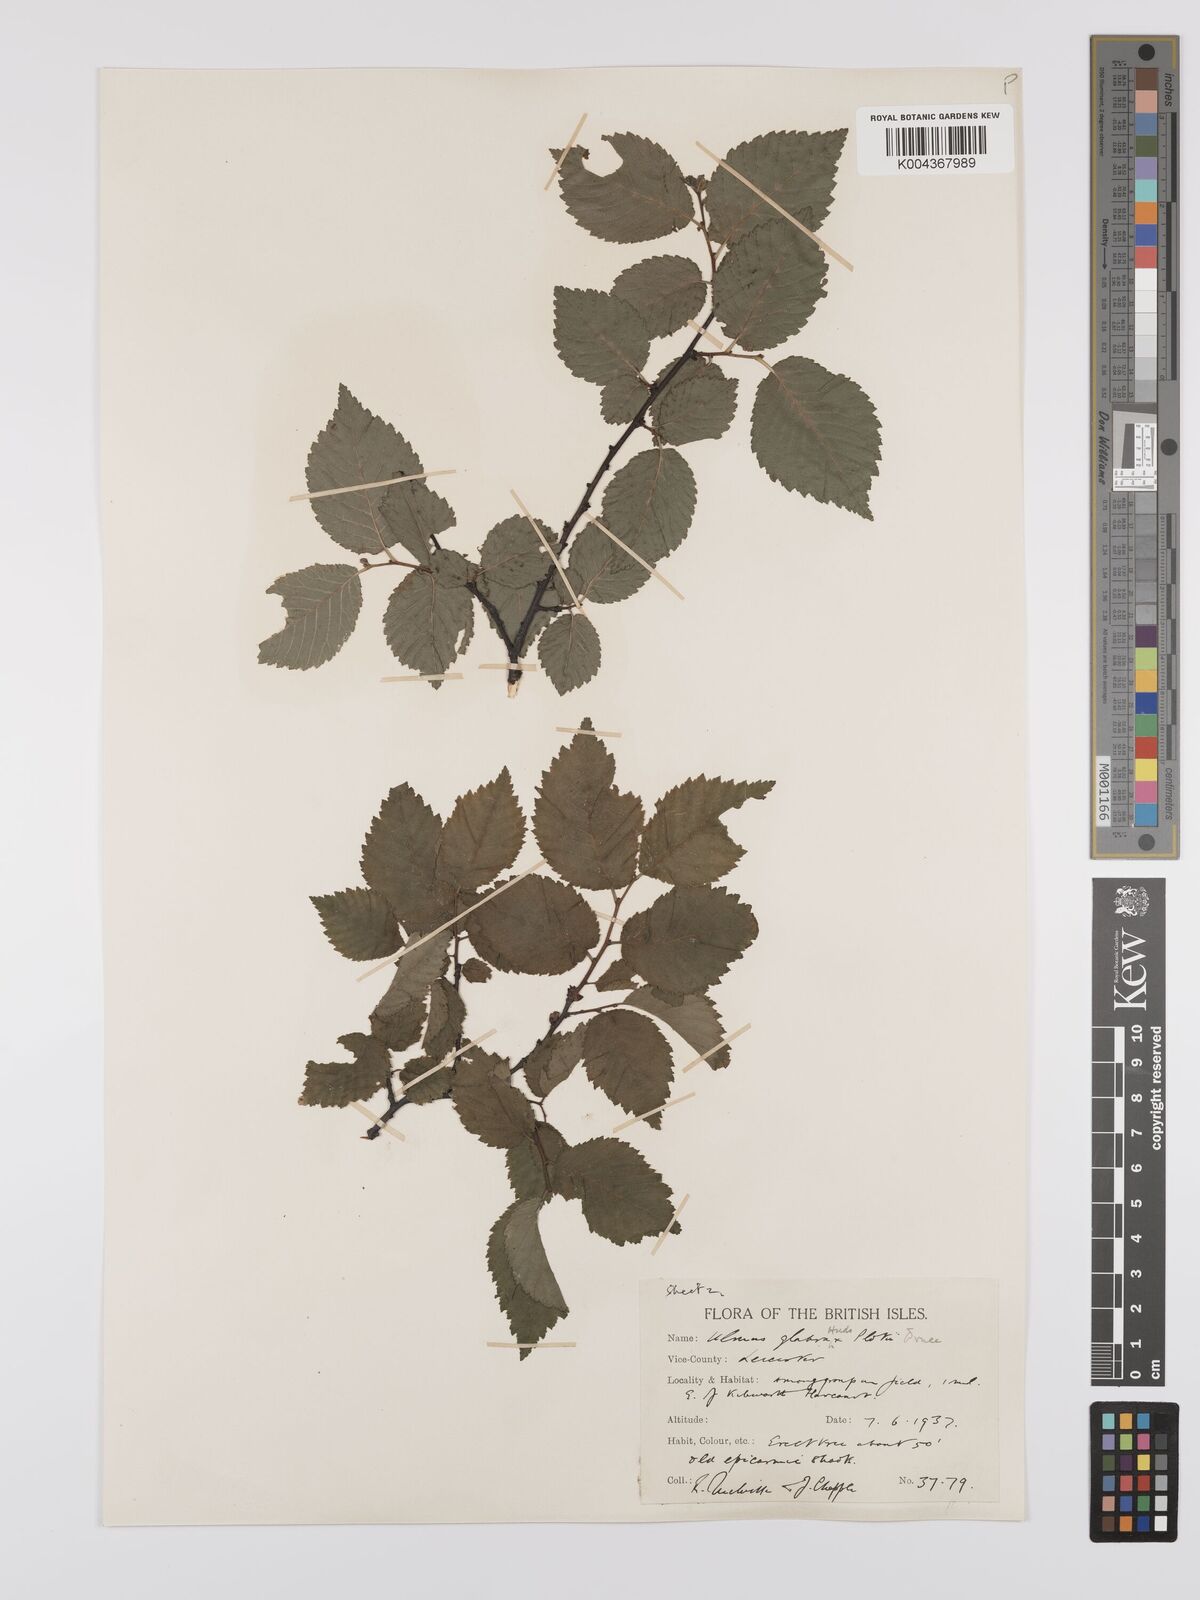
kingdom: Plantae
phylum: Tracheophyta
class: Magnoliopsida
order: Rosales
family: Ulmaceae
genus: Ulmus
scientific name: Ulmus
